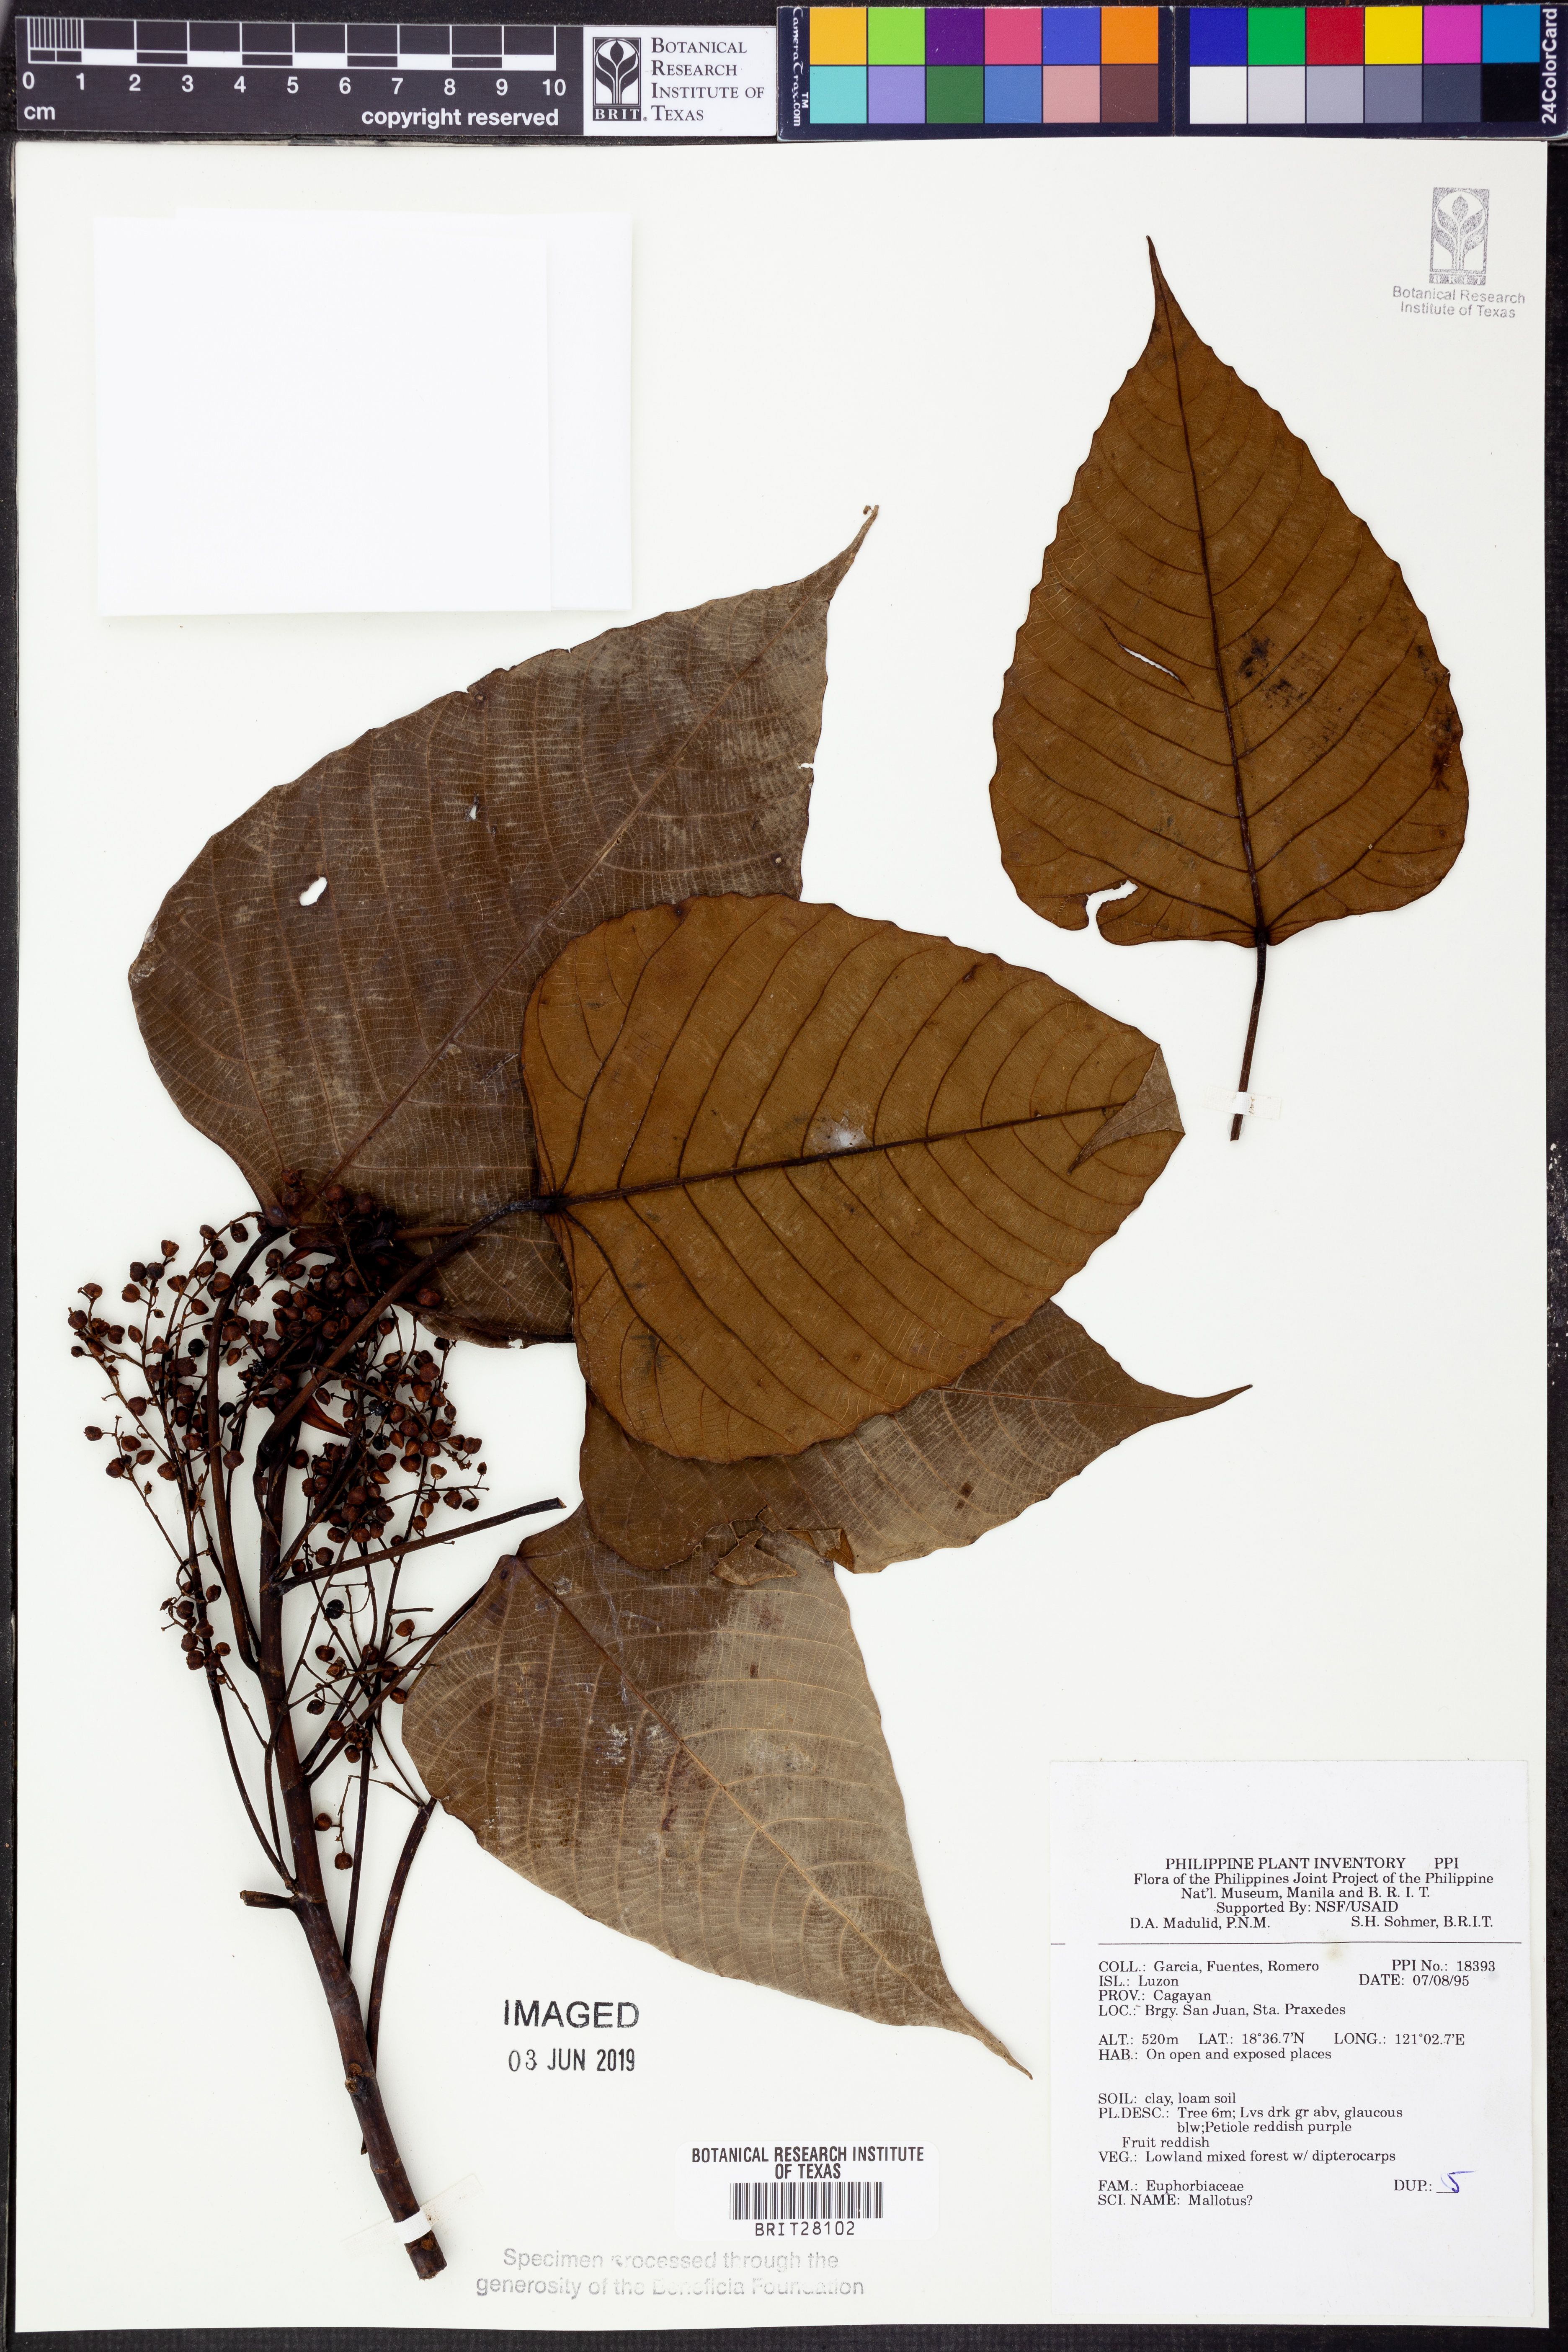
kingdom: Plantae
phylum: Tracheophyta
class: Magnoliopsida
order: Malpighiales
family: Euphorbiaceae
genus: Mallotus
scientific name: Mallotus
